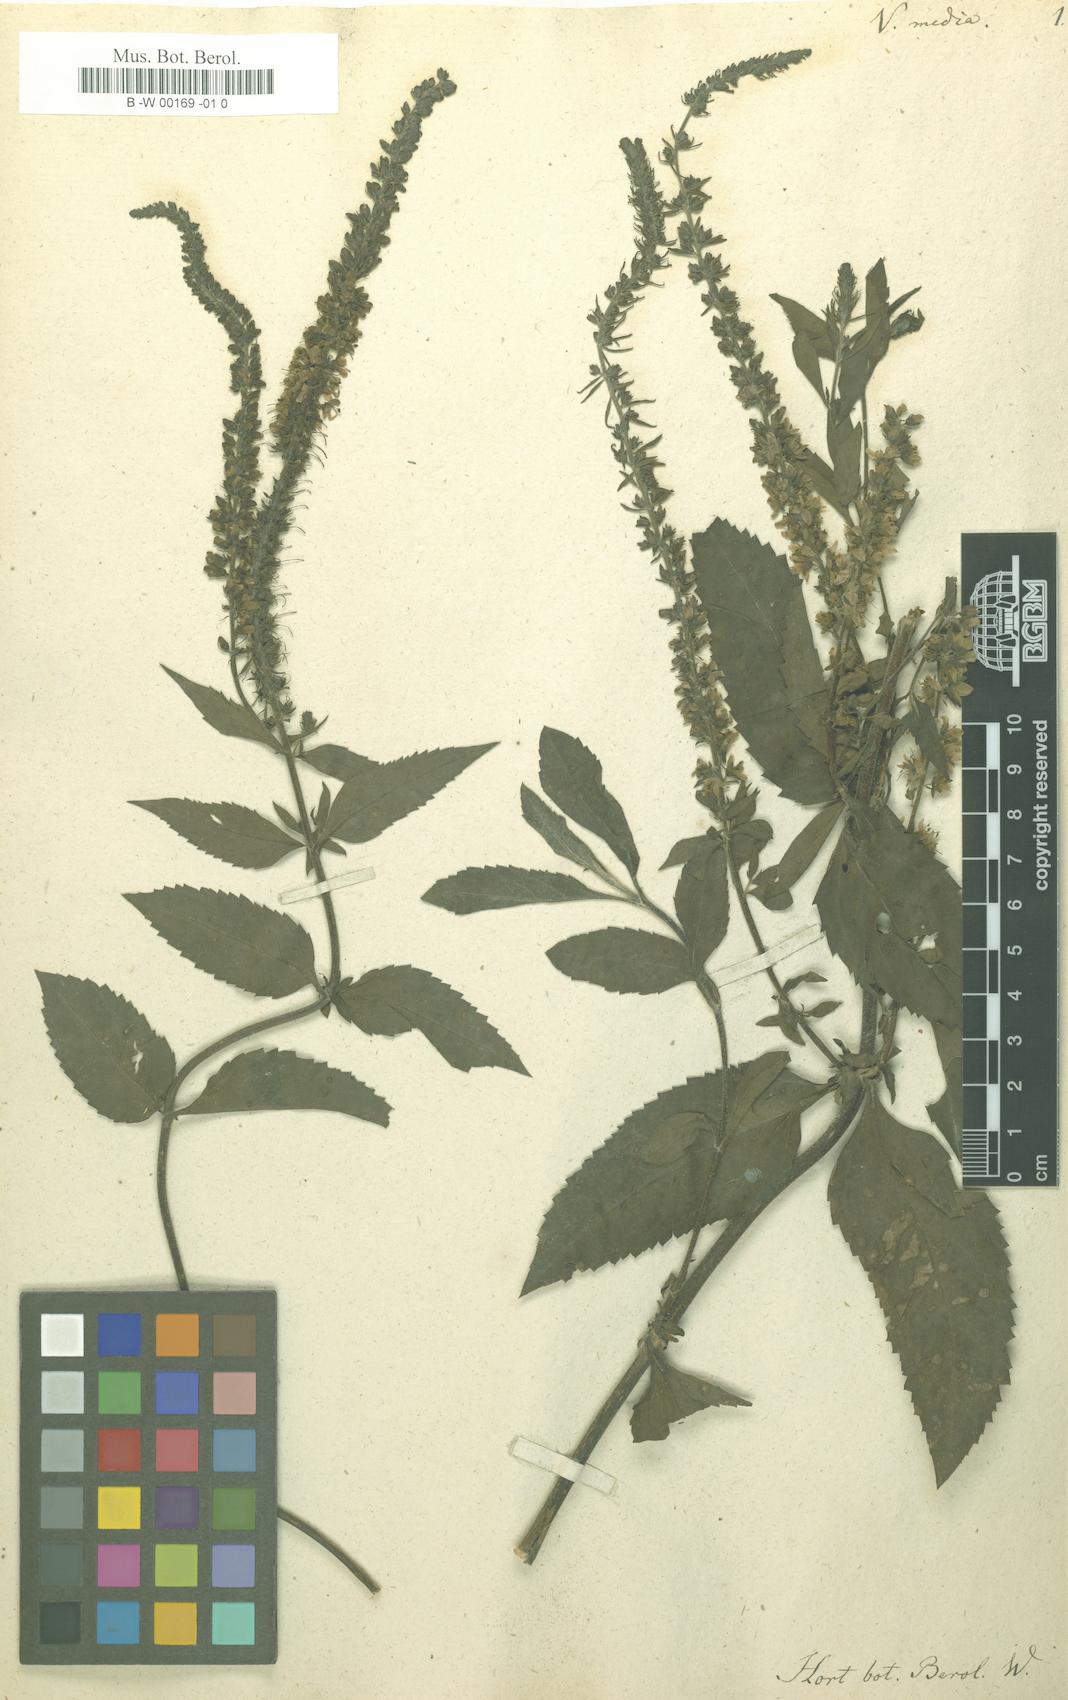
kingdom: Plantae
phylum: Tracheophyta
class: Magnoliopsida
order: Lamiales
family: Plantaginaceae
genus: Veronica
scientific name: Veronica media
